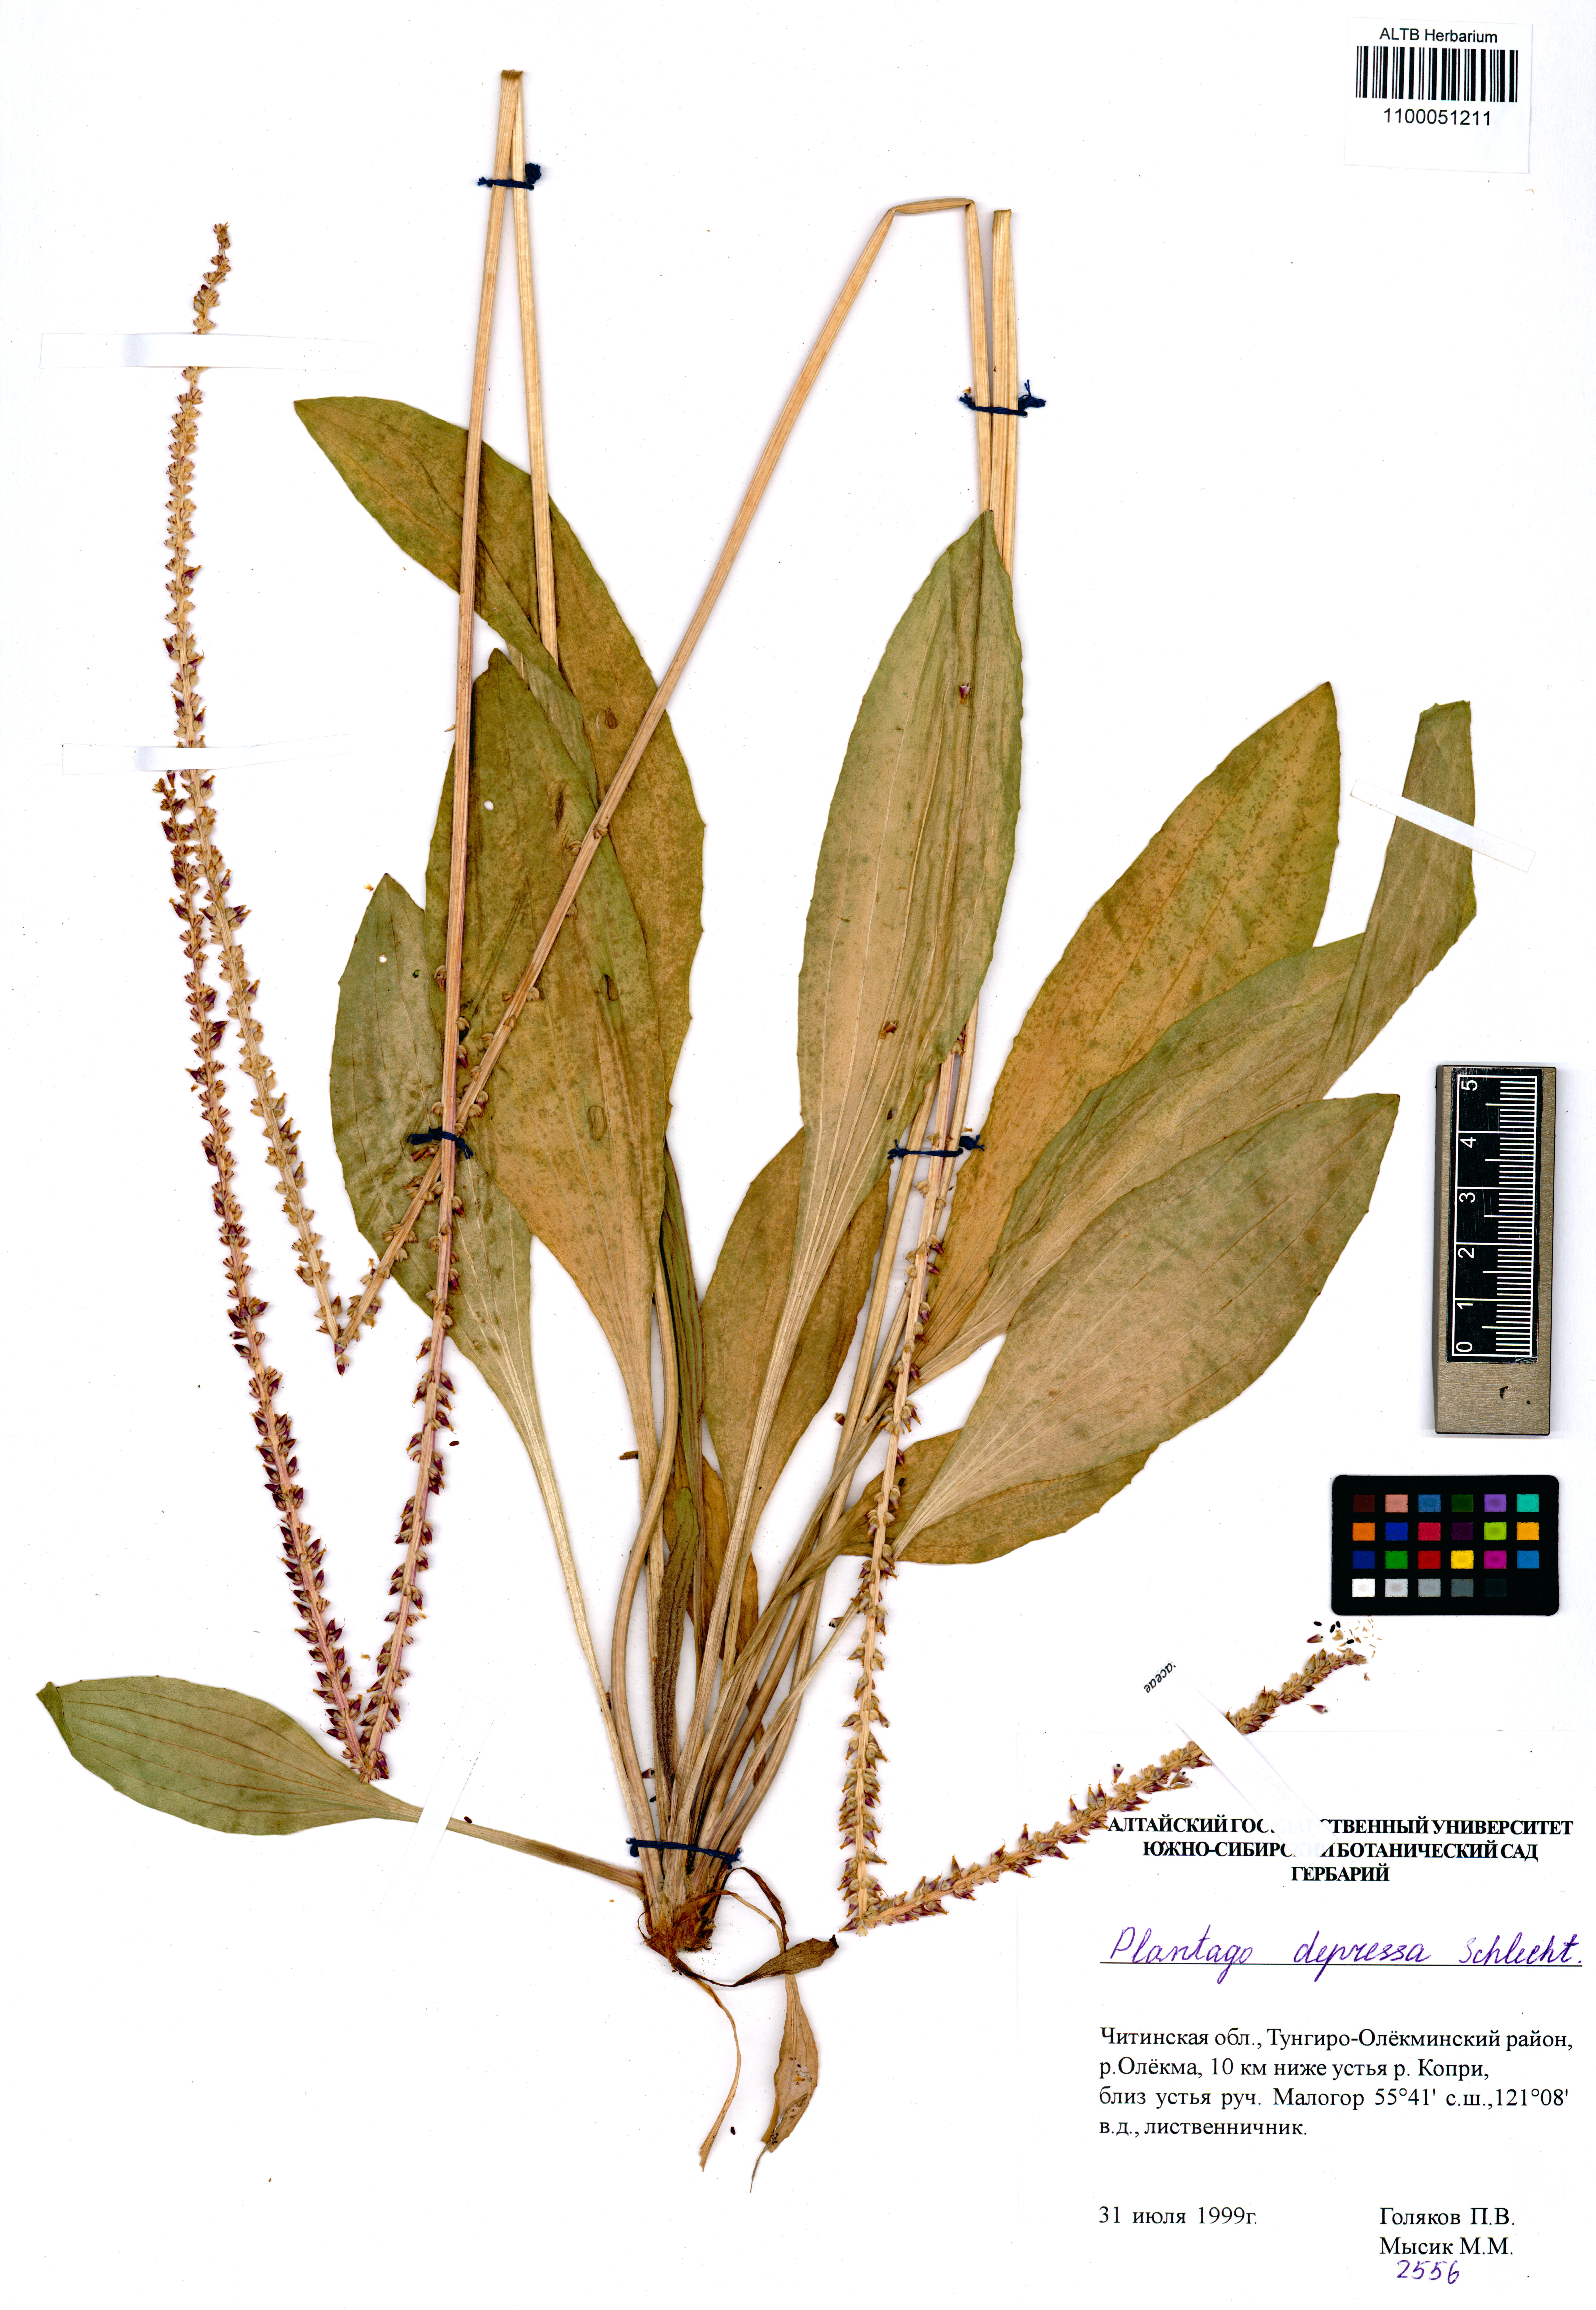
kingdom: Plantae
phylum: Tracheophyta
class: Magnoliopsida
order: Lamiales
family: Plantaginaceae
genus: Plantago
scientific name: Plantago depressa
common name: Depressed plantain
